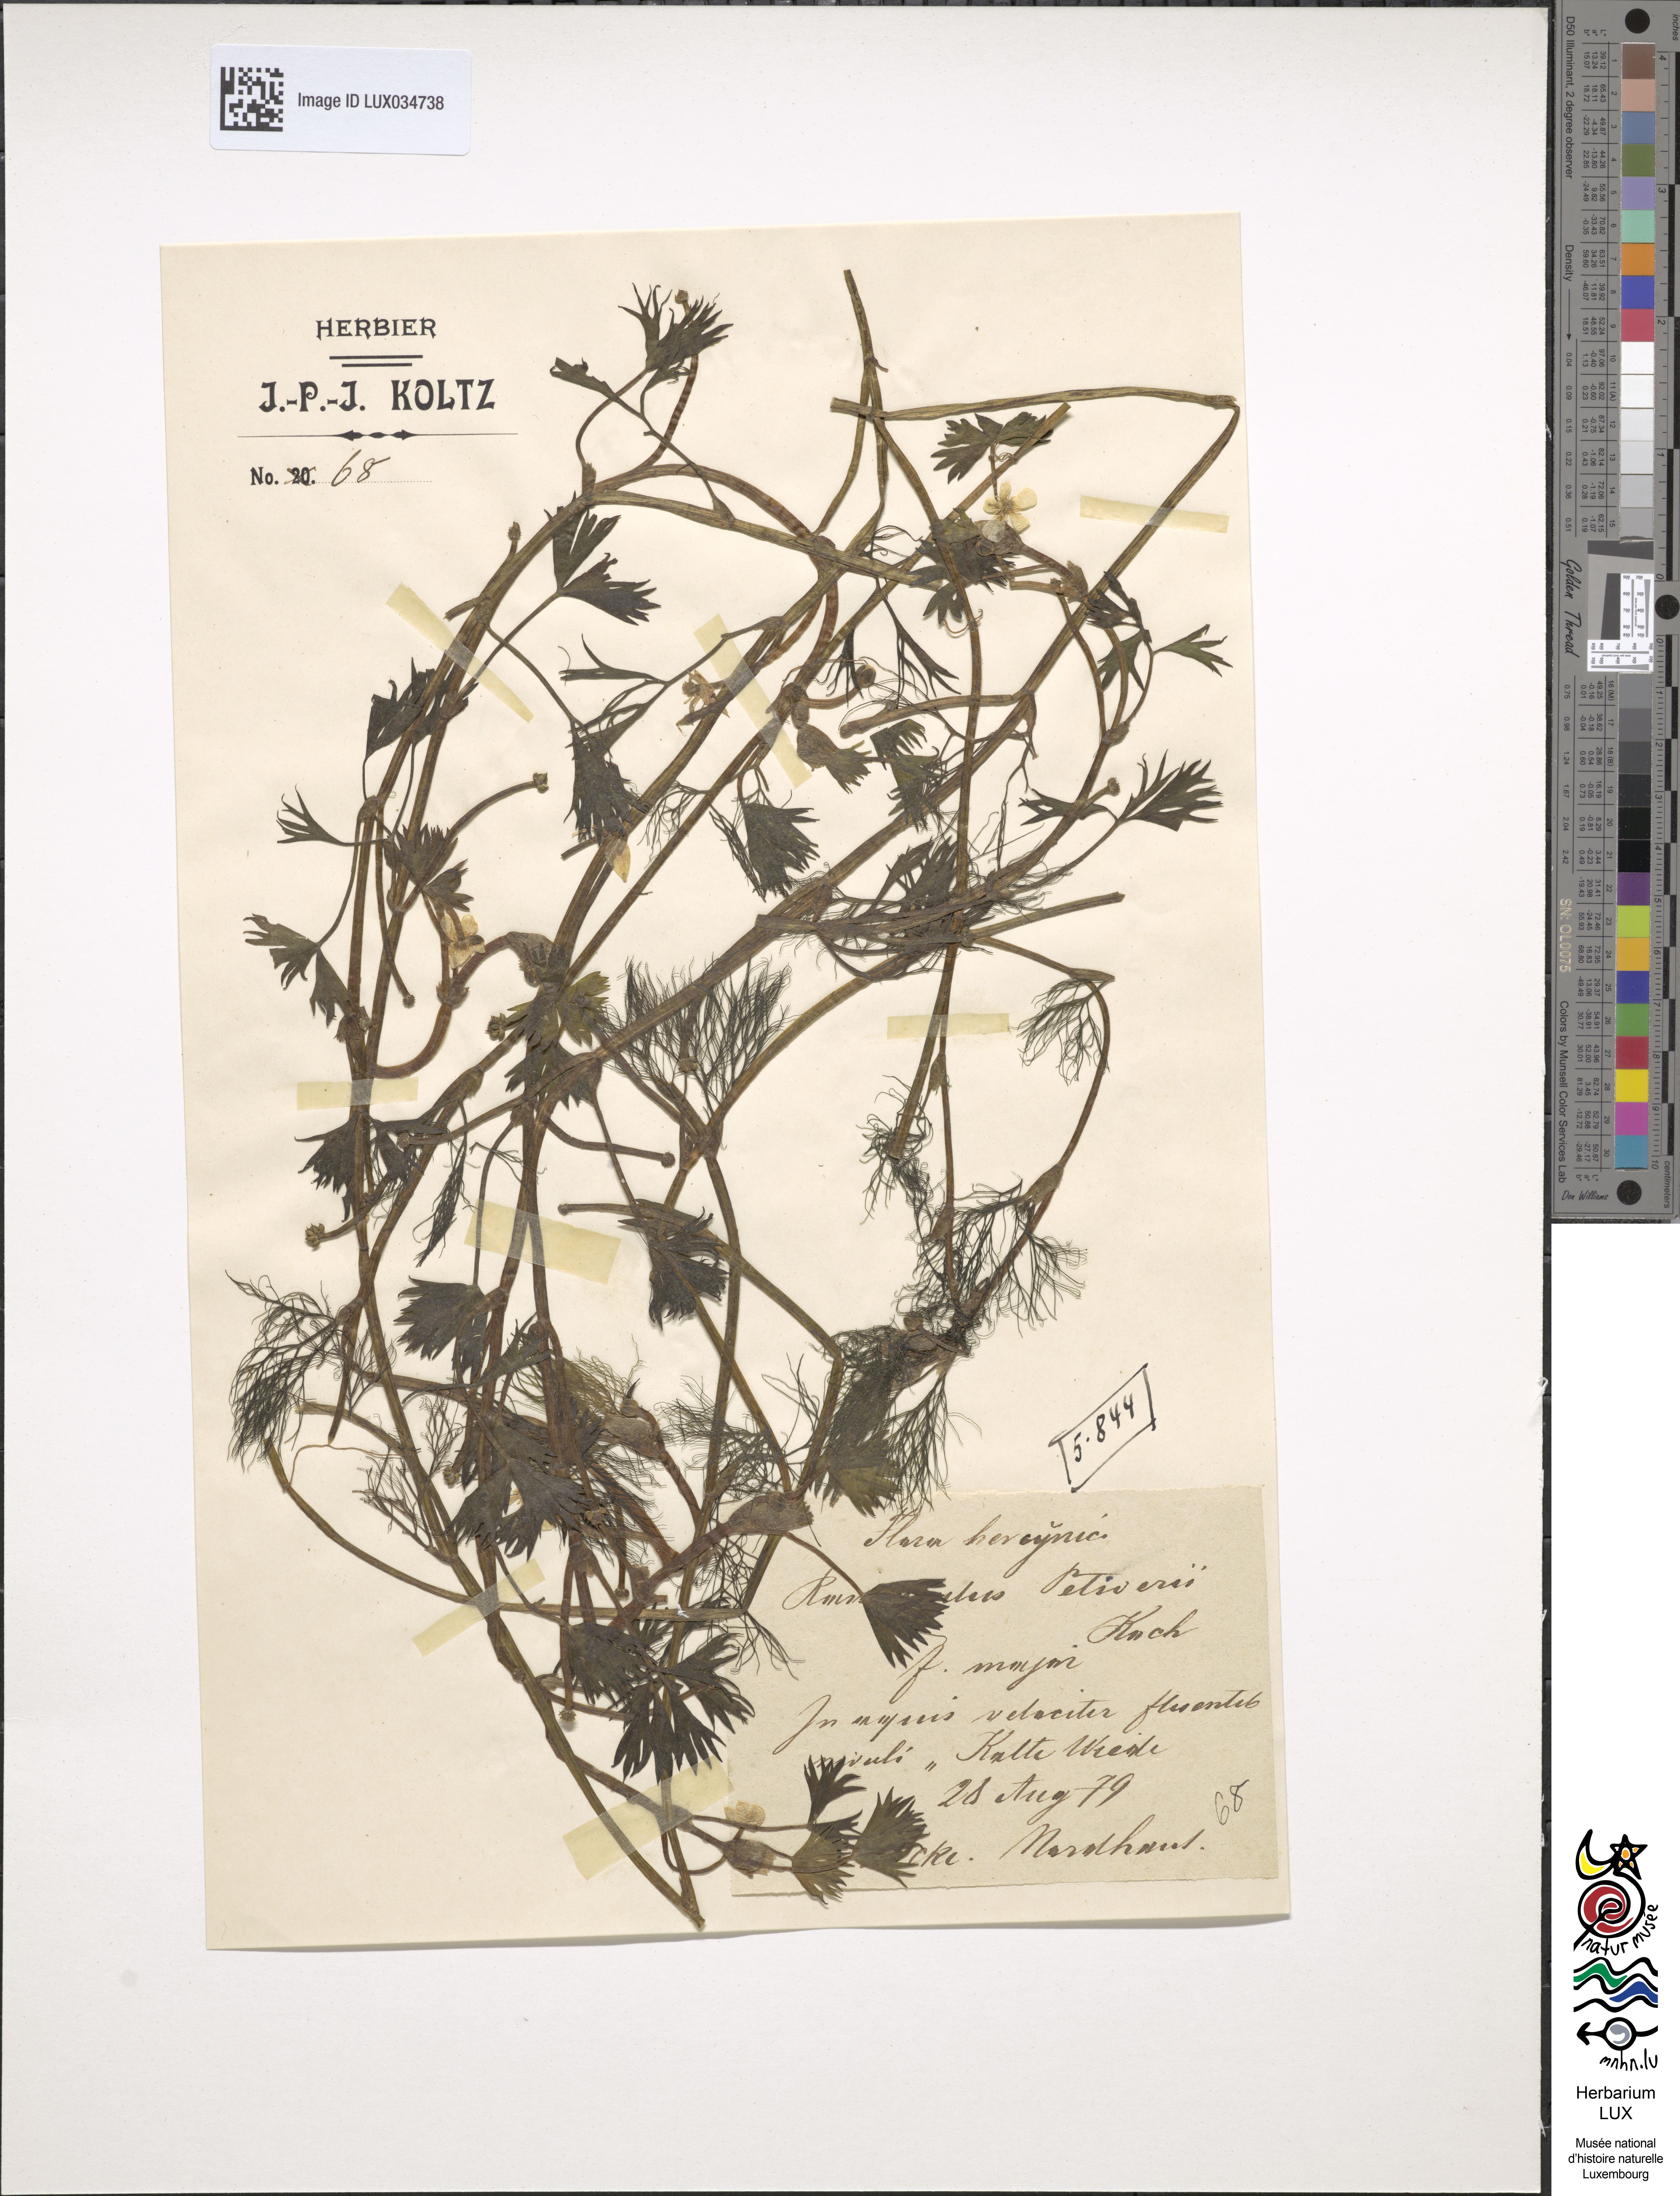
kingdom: Plantae
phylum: Tracheophyta
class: Magnoliopsida
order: Ranunculales
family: Ranunculaceae
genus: Ranunculus
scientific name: Ranunculus tripartitus
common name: Three-lobed crowfoot
